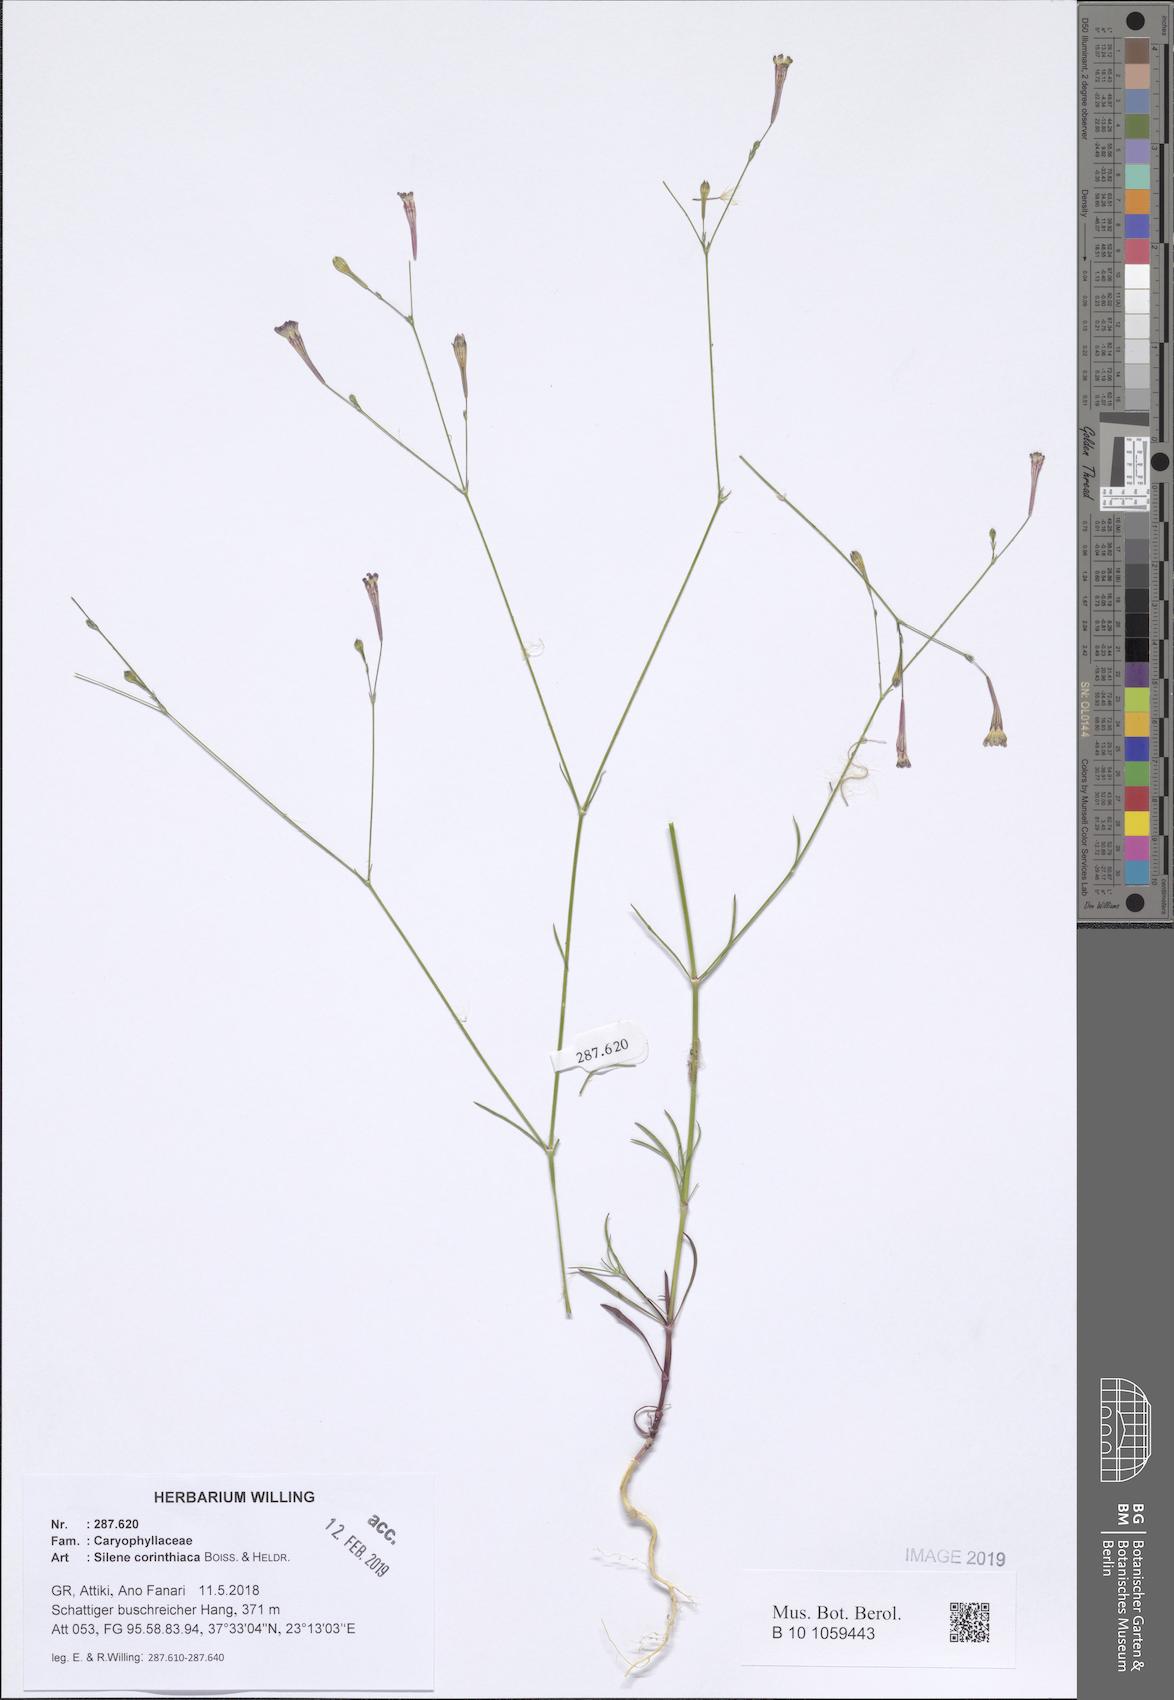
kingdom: Plantae
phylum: Tracheophyta
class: Magnoliopsida
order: Caryophyllales
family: Caryophyllaceae
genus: Silene
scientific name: Silene corinthiaca
